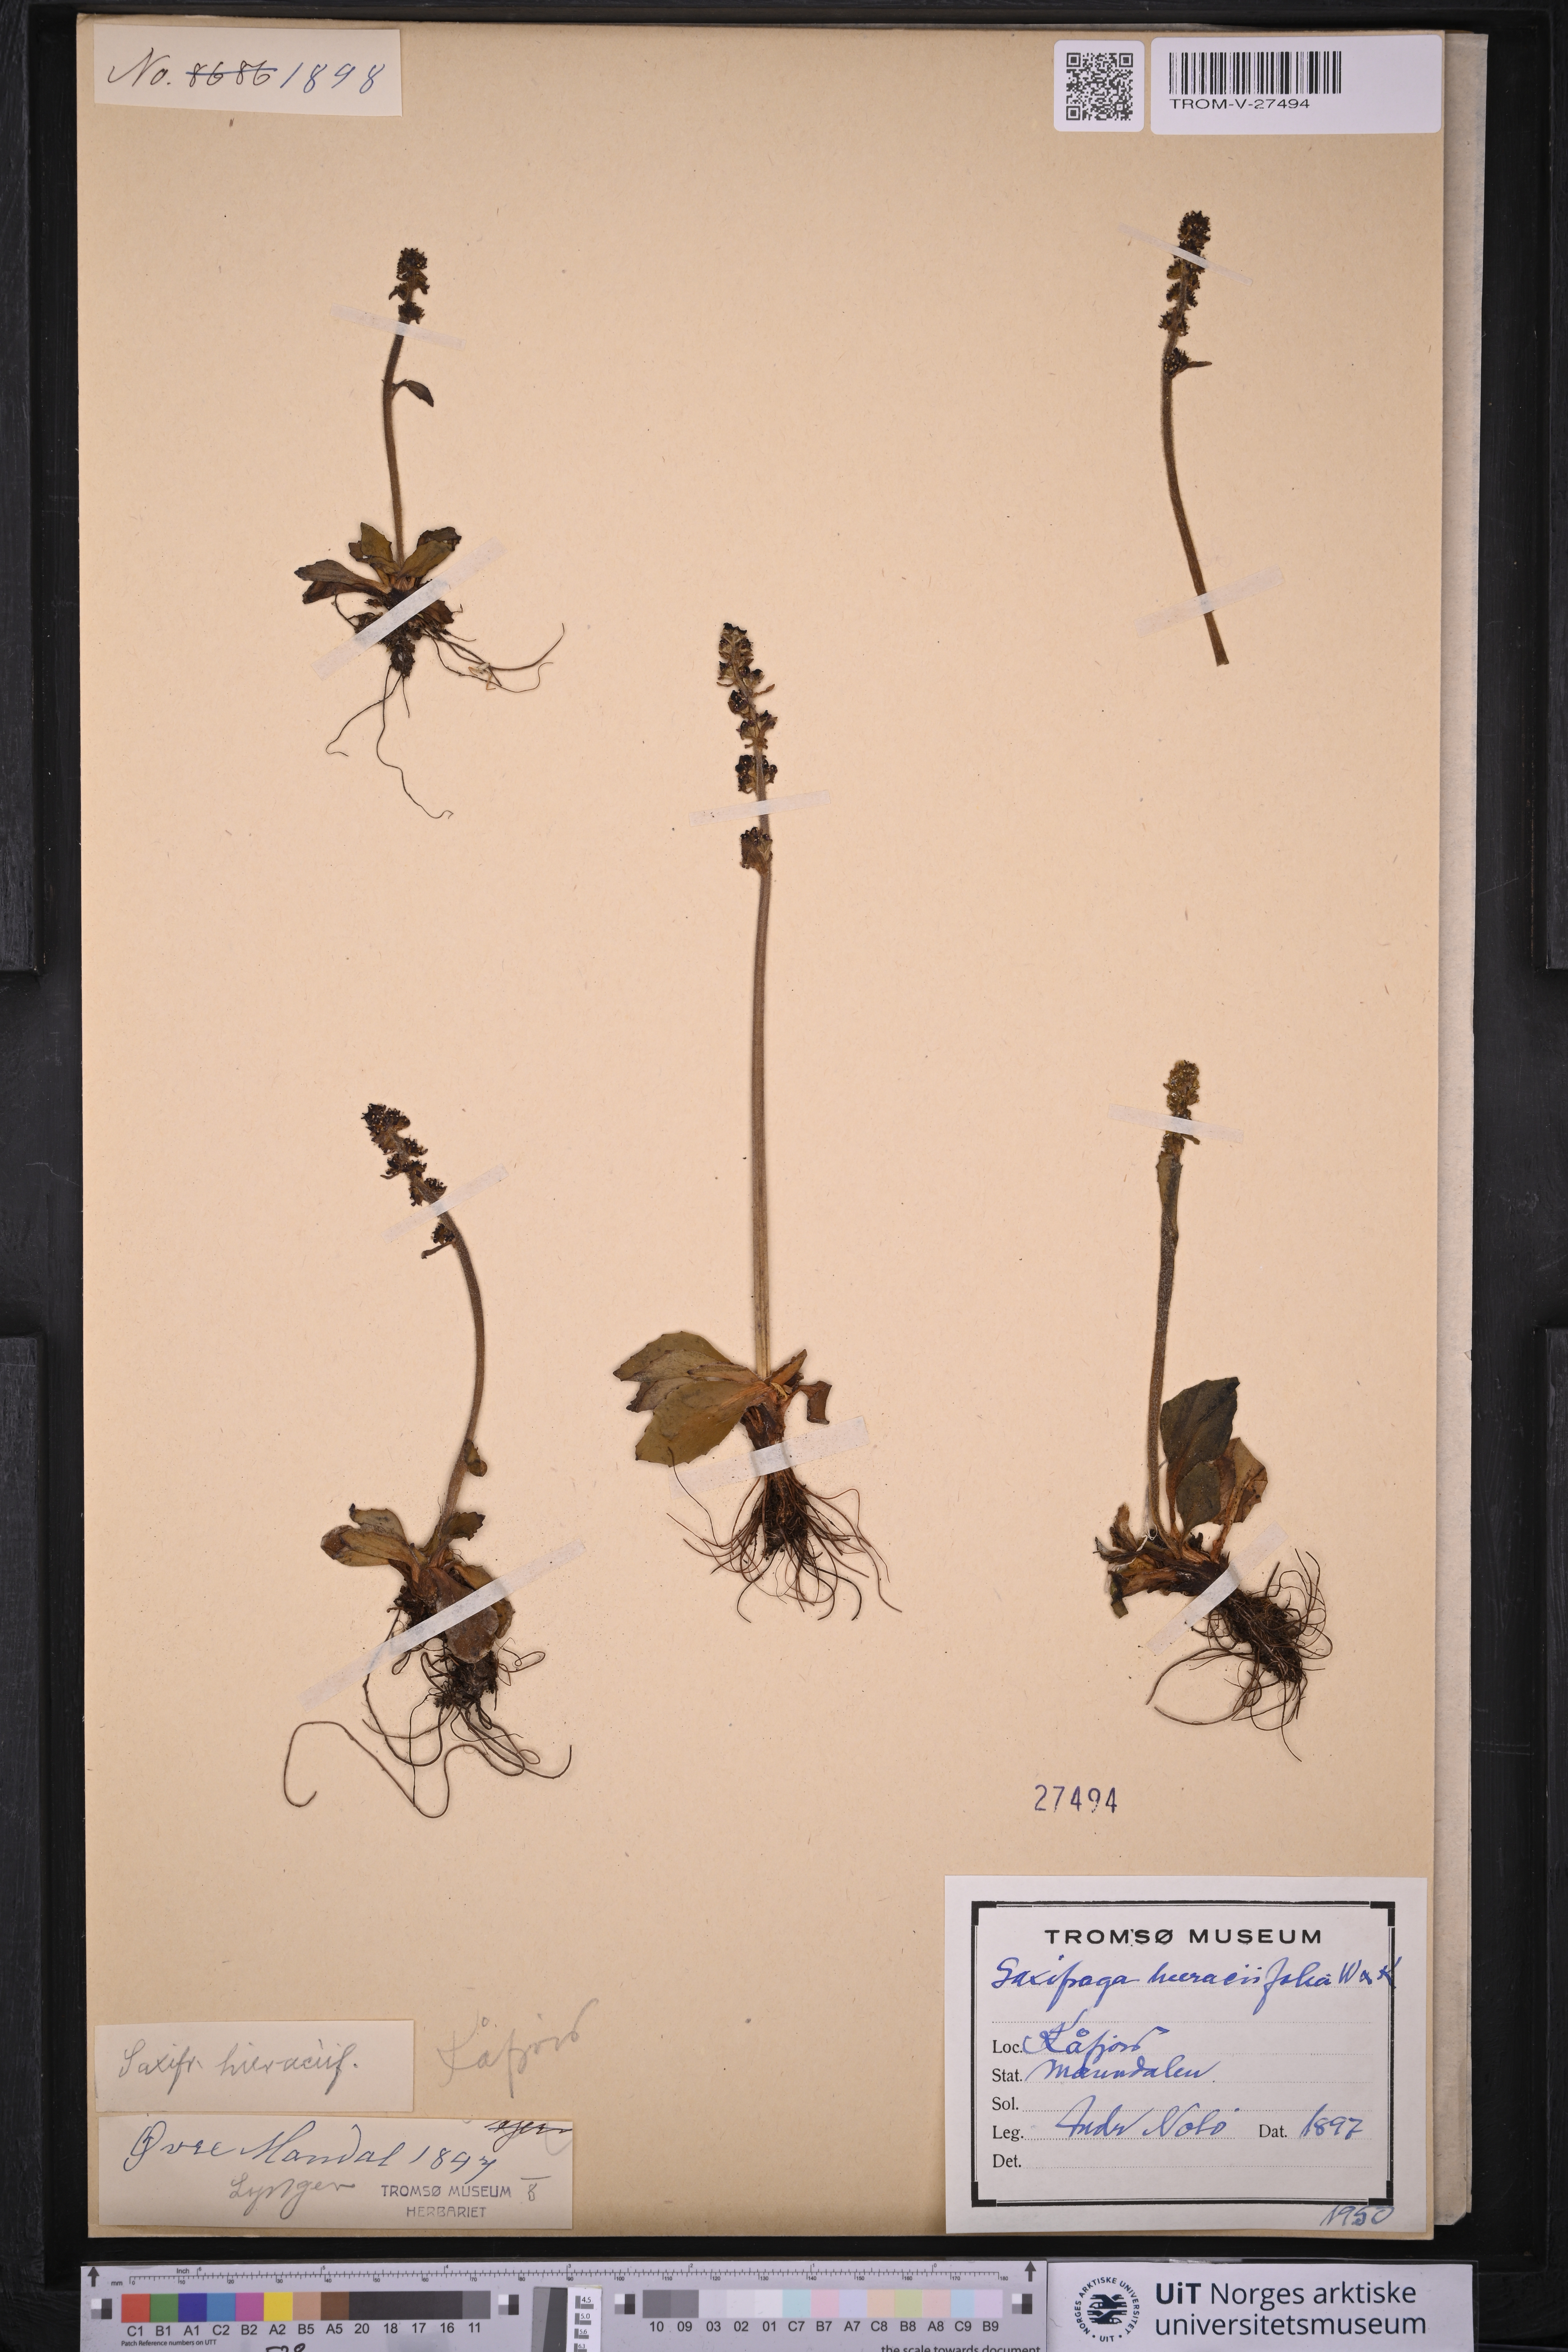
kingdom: Plantae
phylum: Tracheophyta
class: Magnoliopsida
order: Saxifragales
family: Saxifragaceae
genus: Micranthes
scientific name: Micranthes hieraciifolia
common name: Hawkweed-leaved saxifrage
